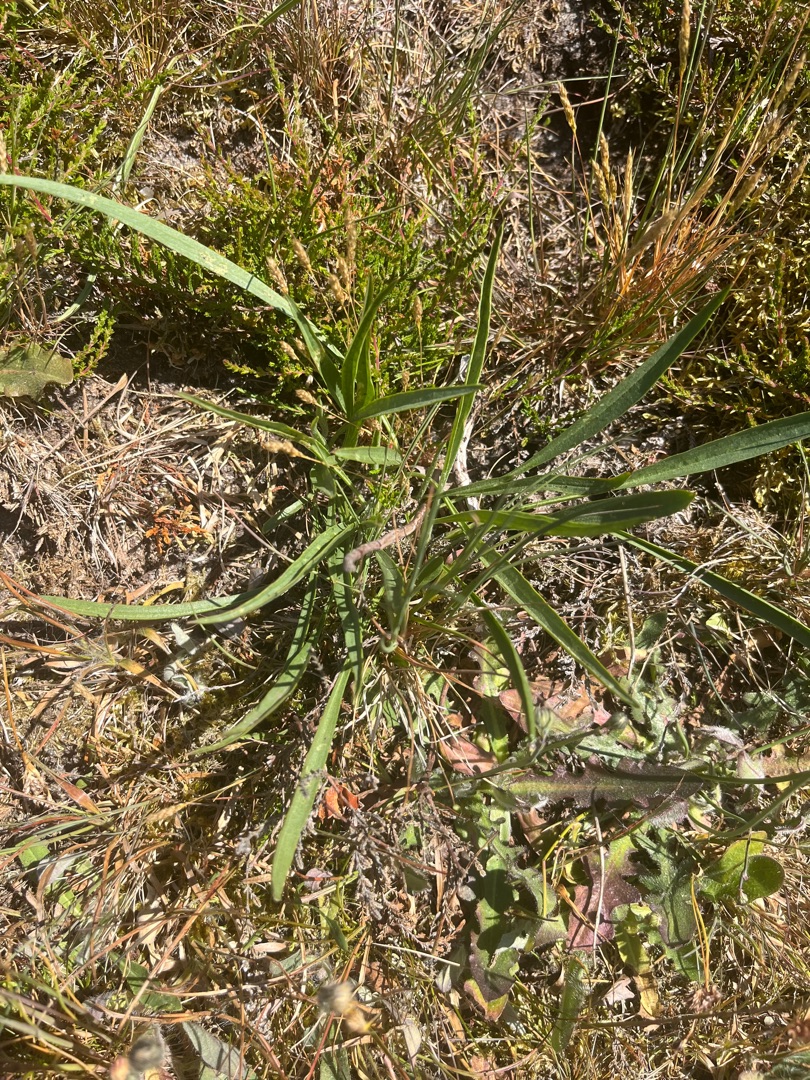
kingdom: Plantae
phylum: Tracheophyta
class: Magnoliopsida
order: Asterales
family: Asteraceae
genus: Scorzonera
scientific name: Scorzonera humilis
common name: Lav skorsoner
